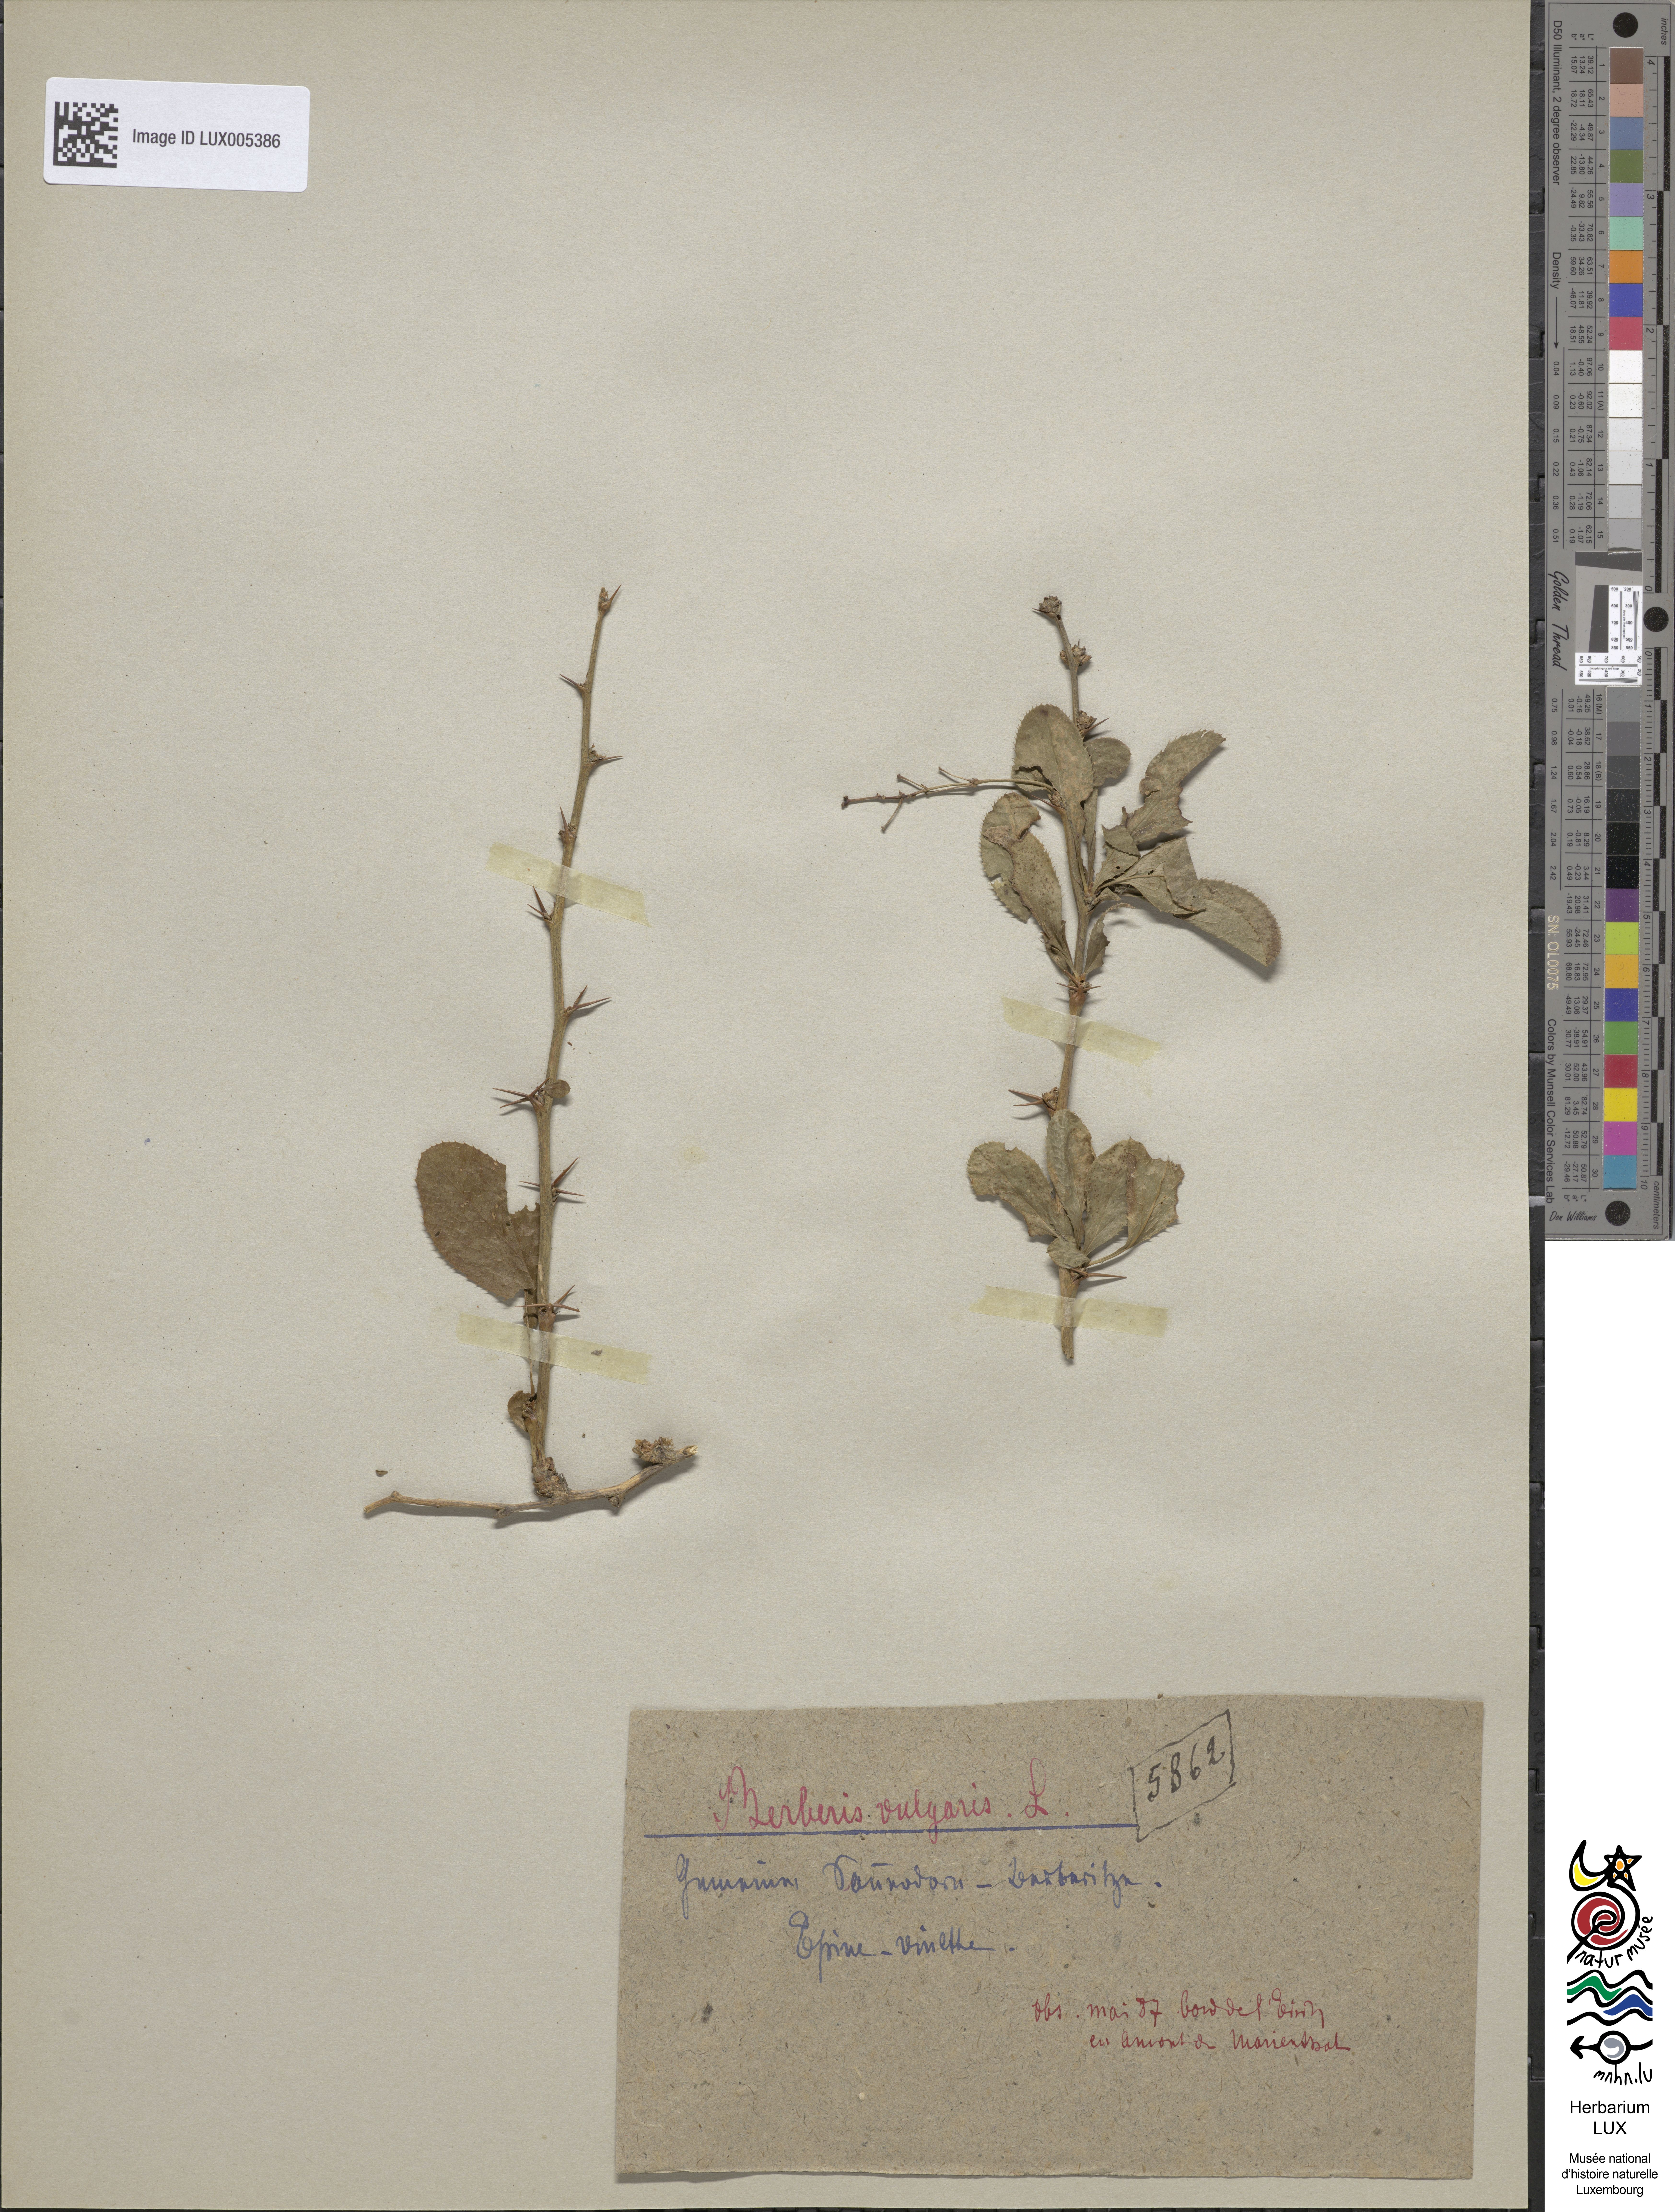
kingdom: Plantae
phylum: Tracheophyta
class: Magnoliopsida
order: Ranunculales
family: Berberidaceae
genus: Berberis
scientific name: Berberis vulgaris
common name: Barberry
